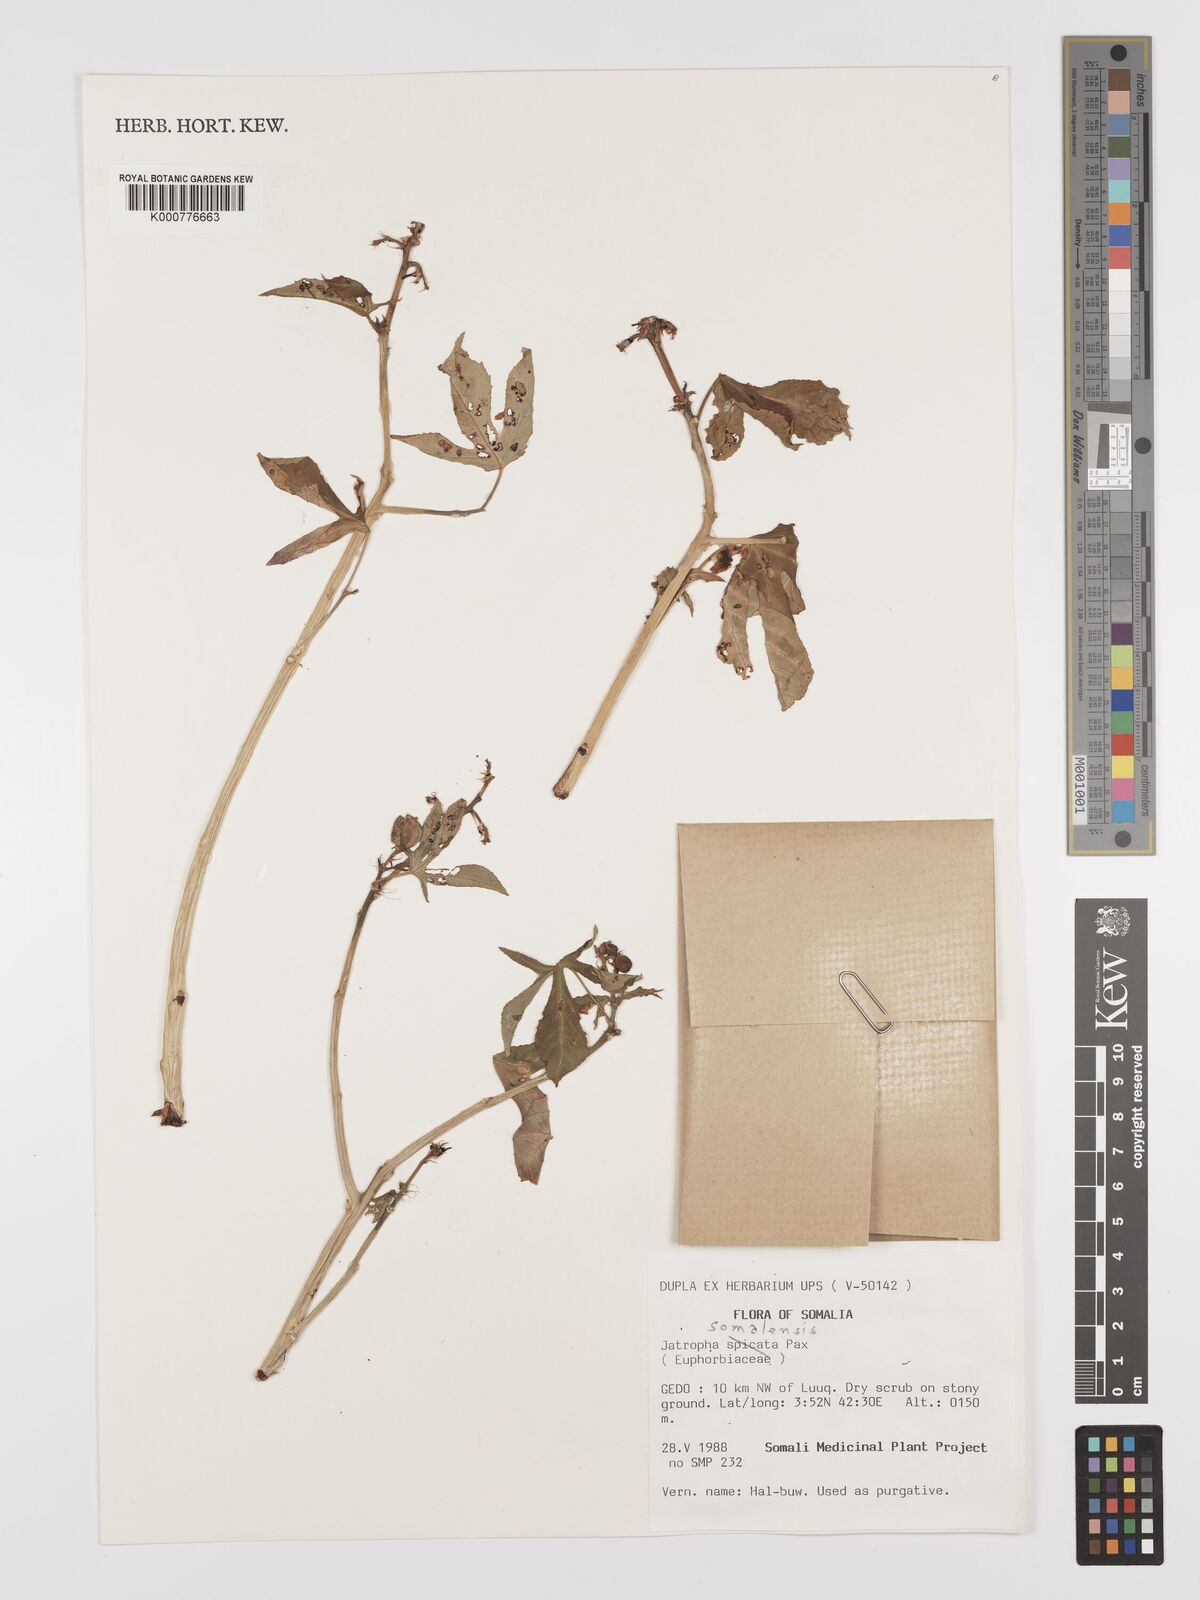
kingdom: Plantae
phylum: Tracheophyta
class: Magnoliopsida
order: Malpighiales
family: Euphorbiaceae
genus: Jatropha
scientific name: Jatropha trifida
